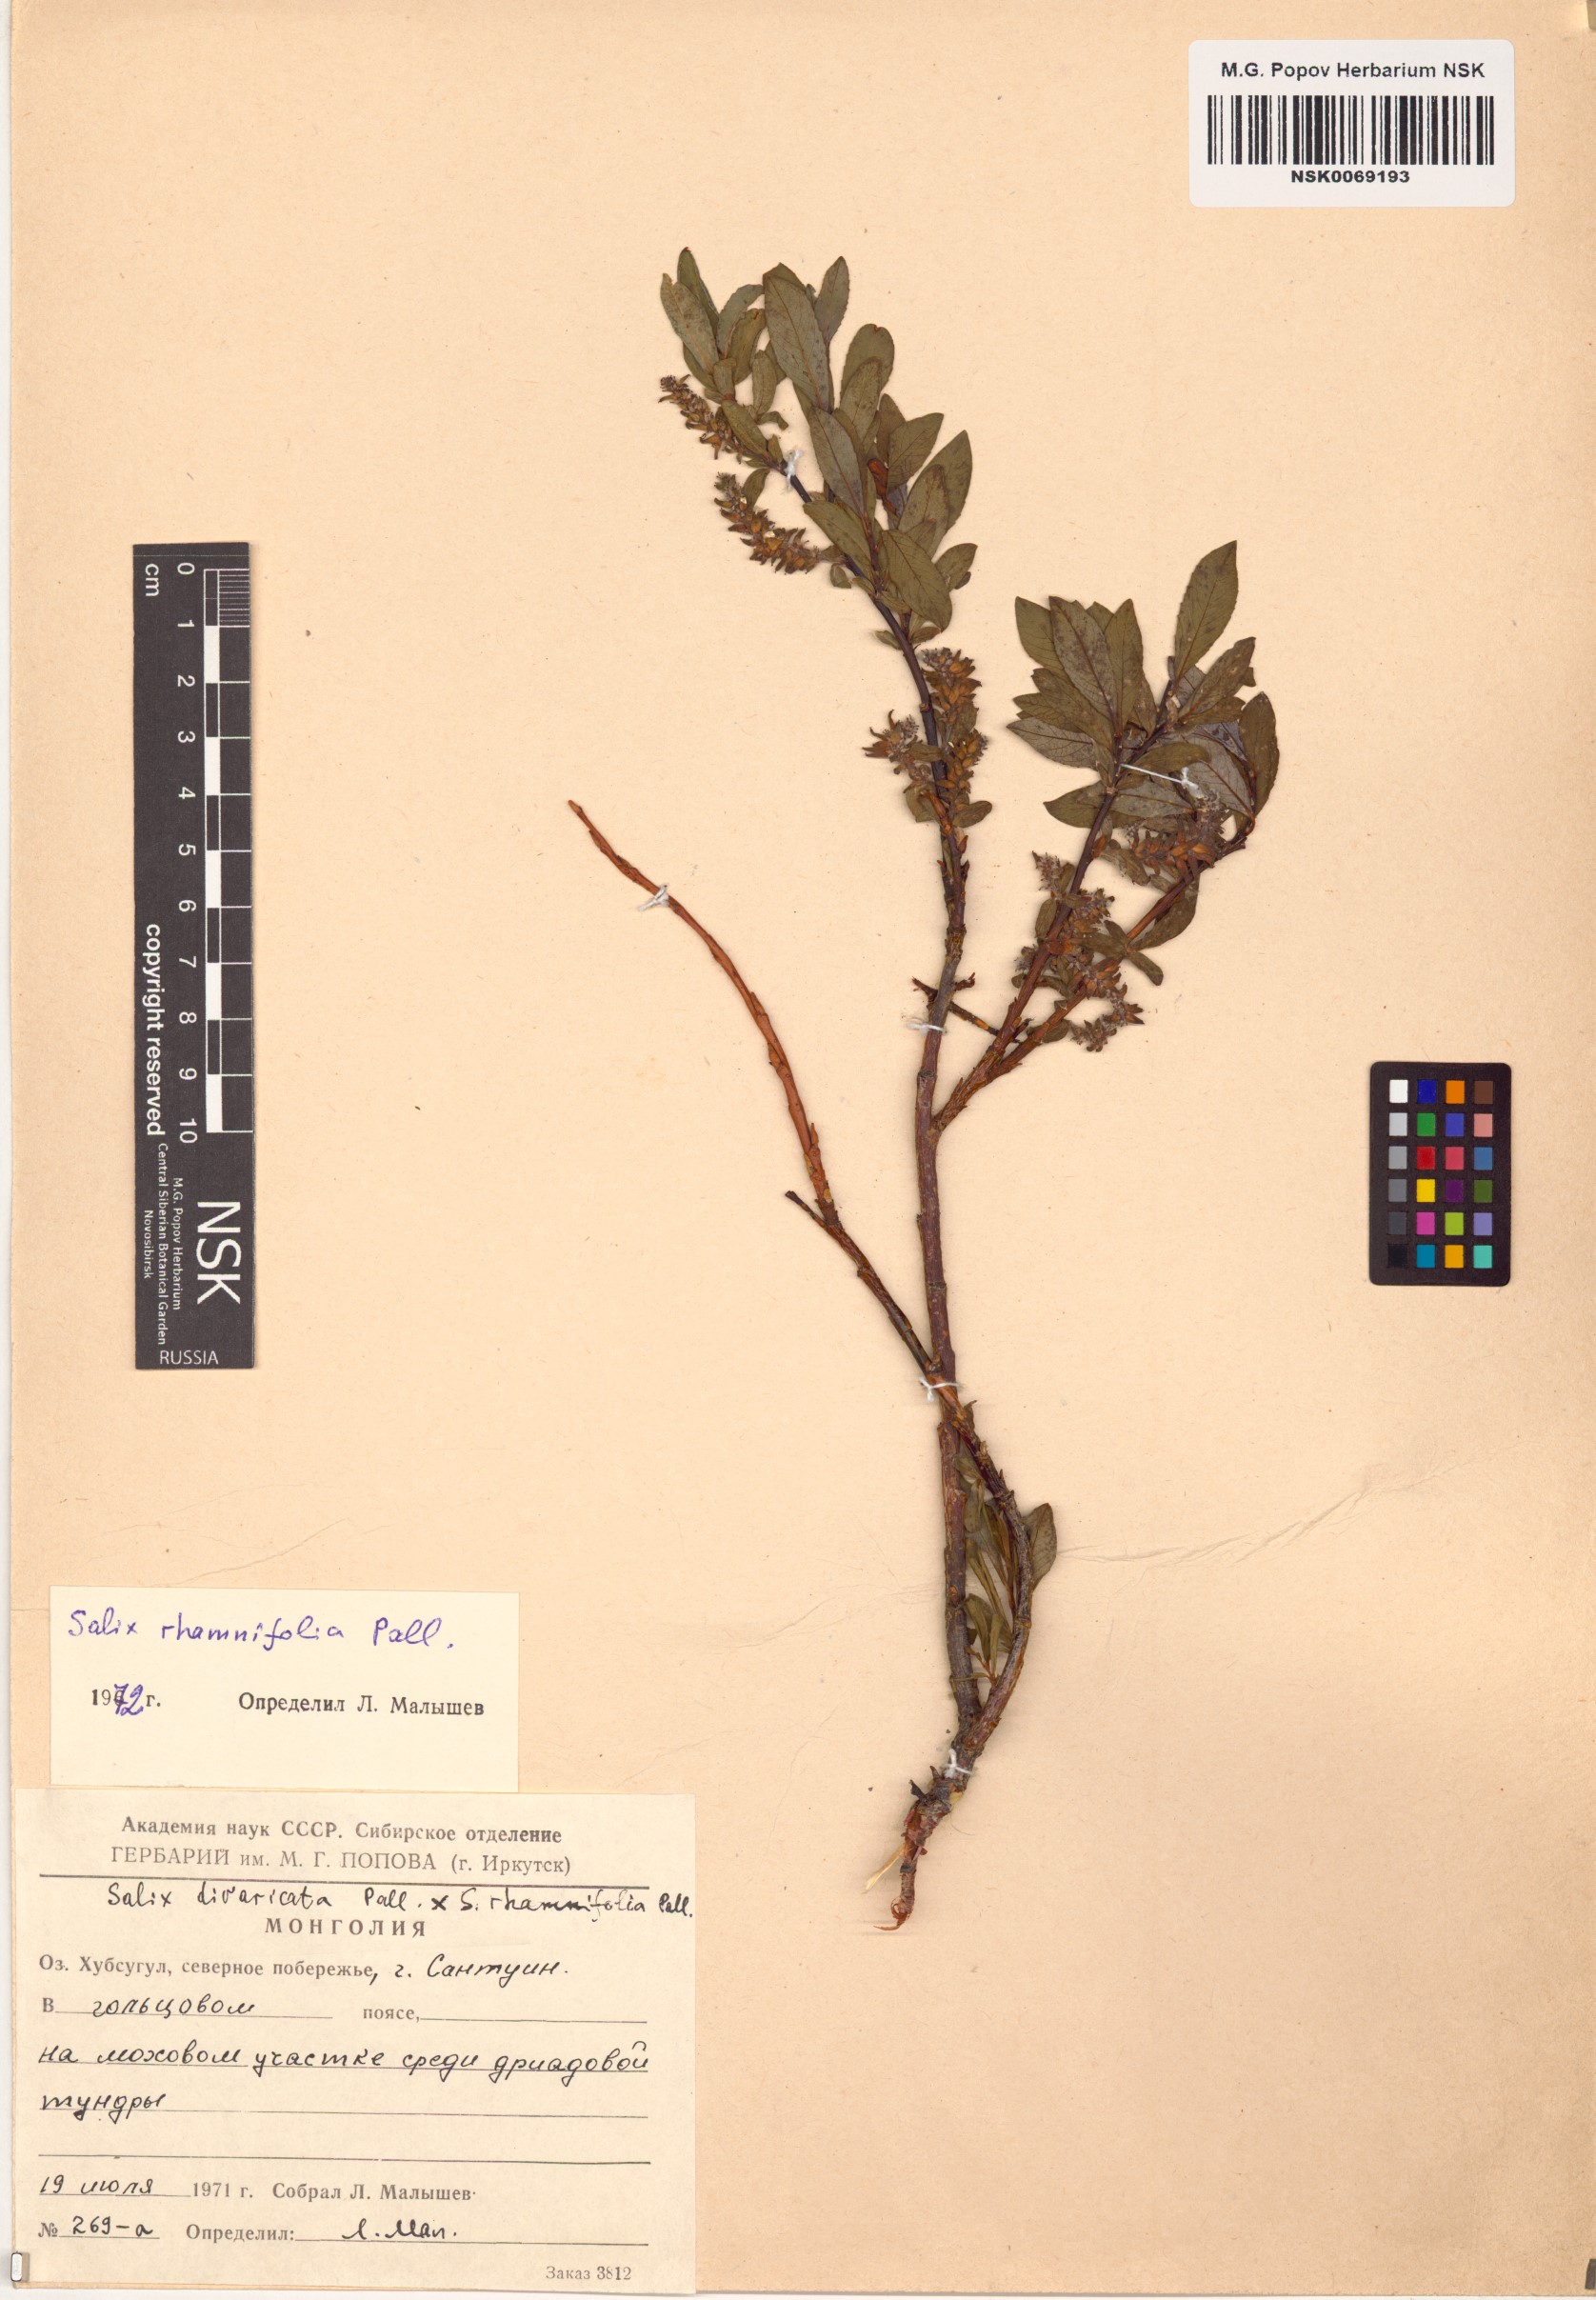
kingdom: Plantae
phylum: Tracheophyta
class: Magnoliopsida
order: Malpighiales
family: Salicaceae
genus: Salix
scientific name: Salix rhamnifolia
